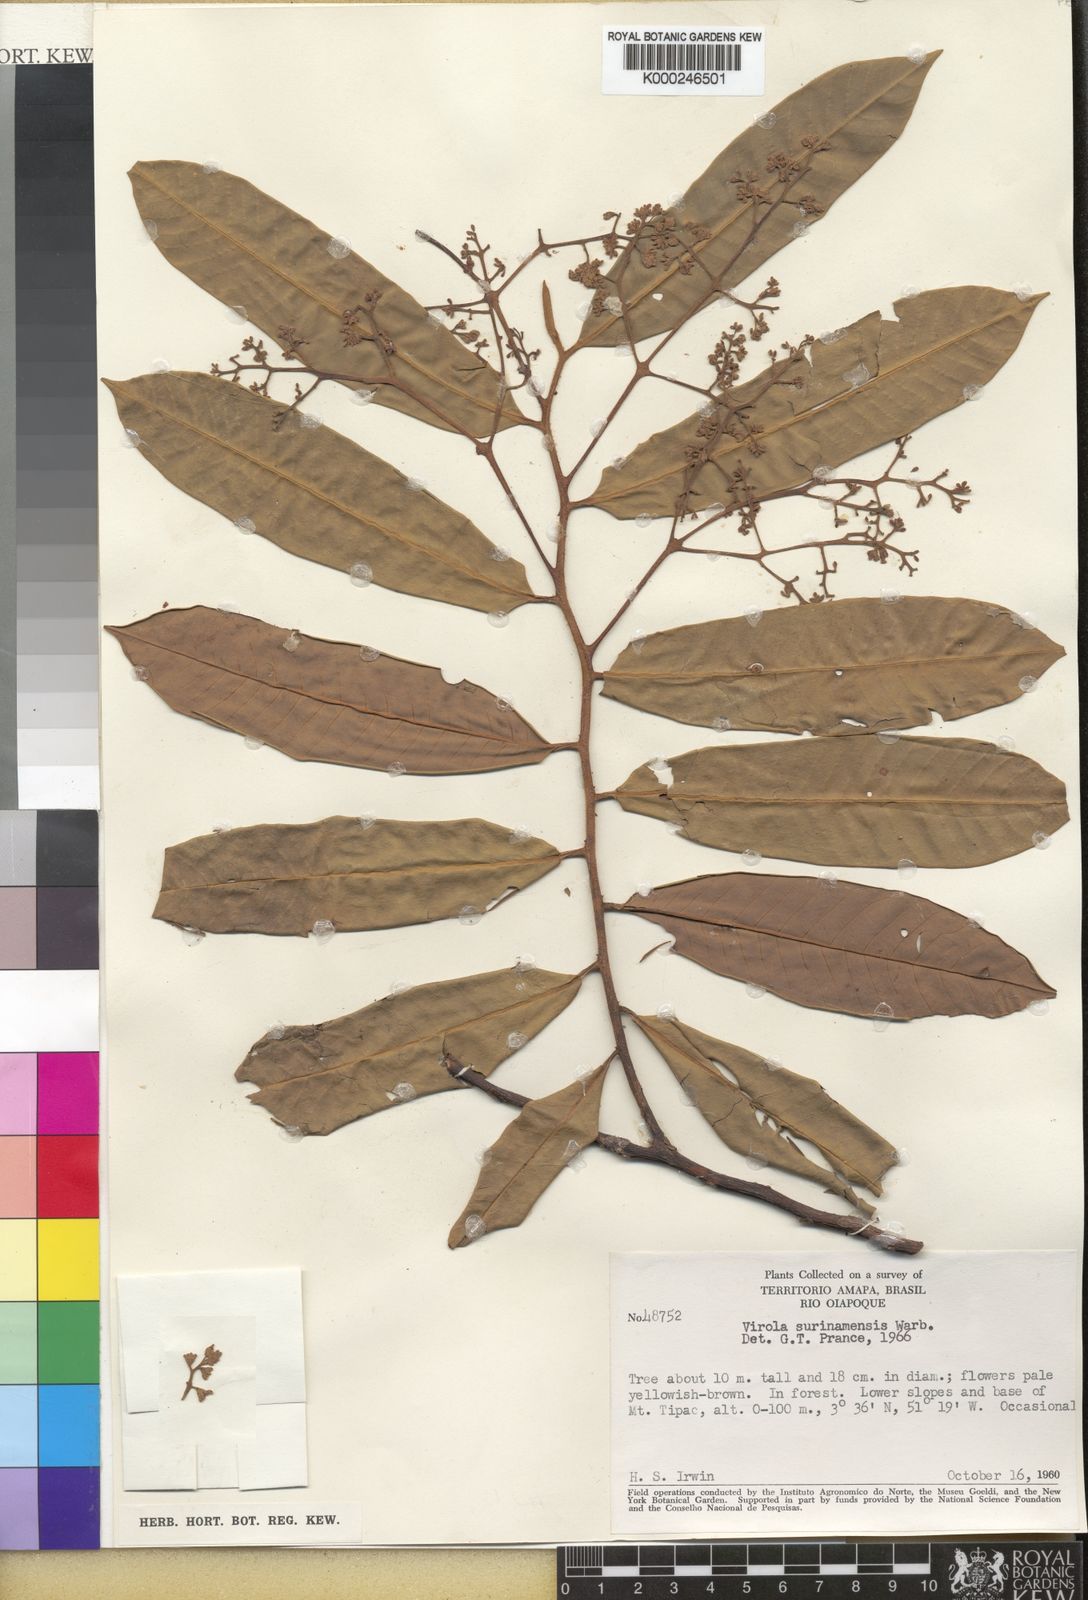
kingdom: Plantae
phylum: Tracheophyta
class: Magnoliopsida
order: Magnoliales
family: Myristicaceae
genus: Virola
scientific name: Virola surinamensis
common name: Baboonwood
